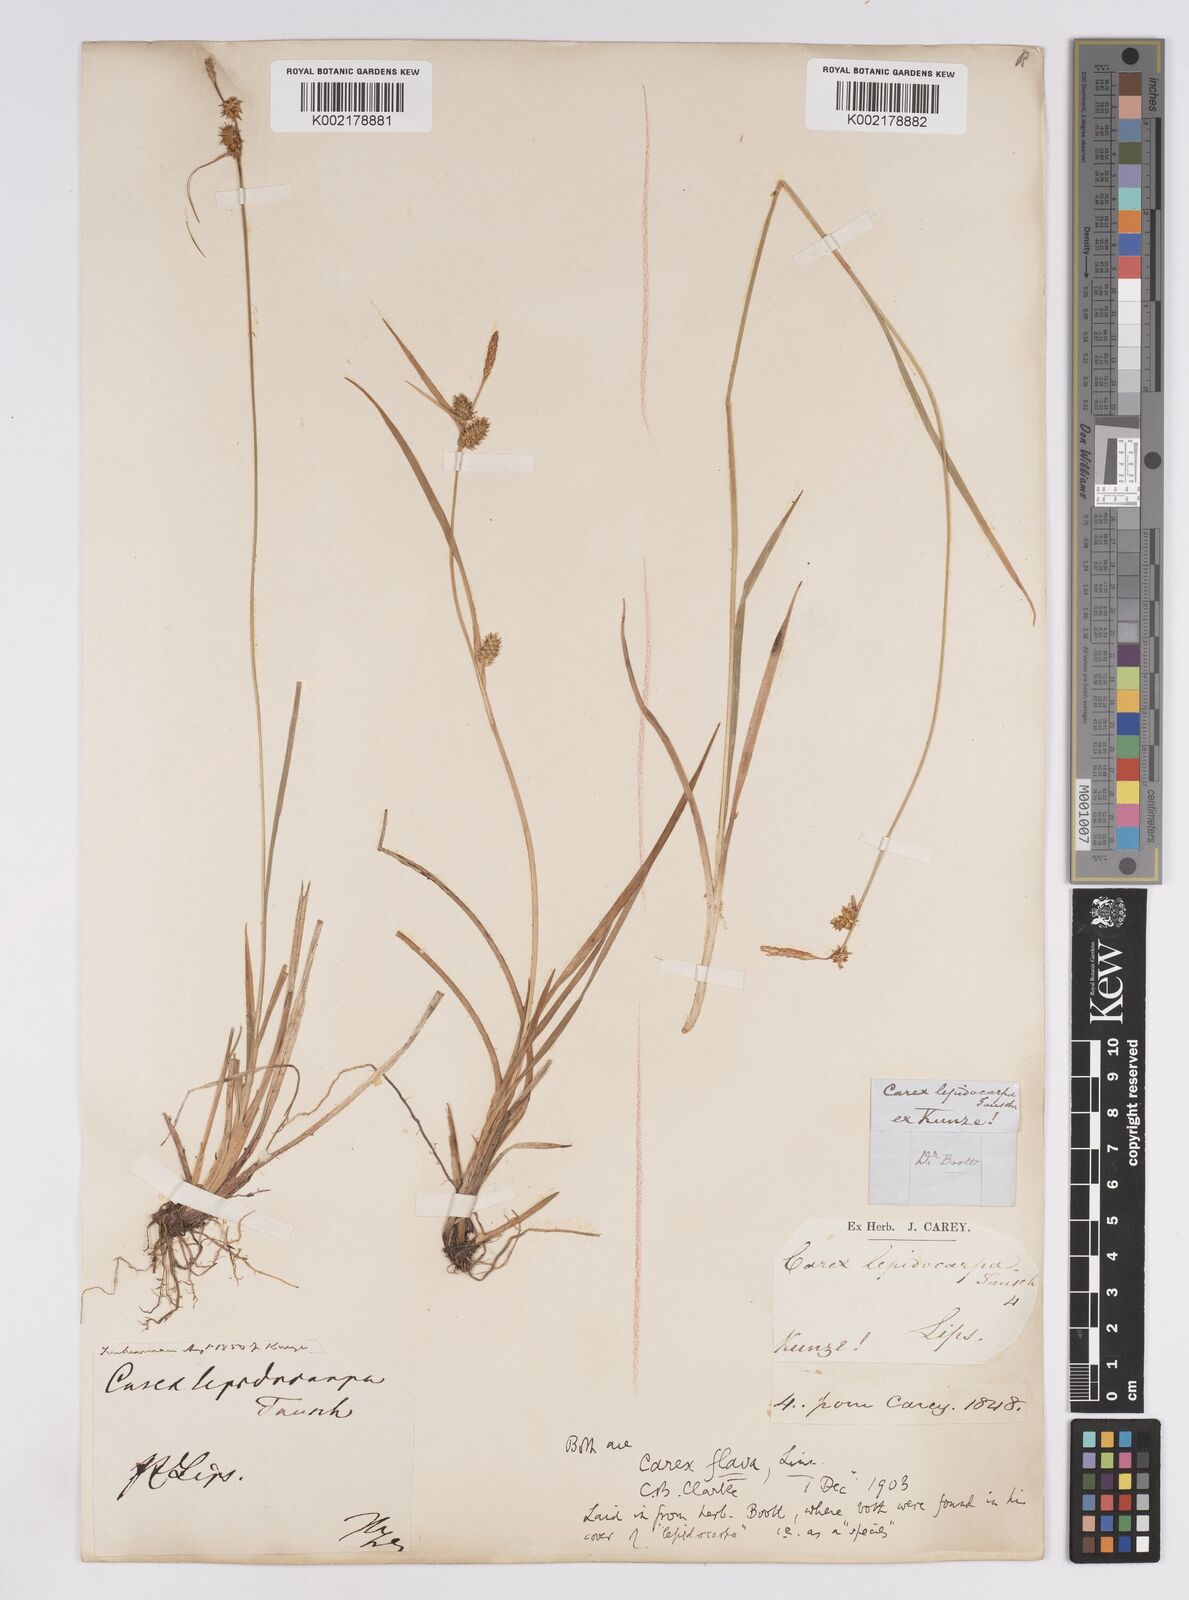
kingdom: Plantae
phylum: Tracheophyta
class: Liliopsida
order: Poales
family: Cyperaceae
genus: Carex
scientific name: Carex lepidocarpa
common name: Long-stalked yellow-sedge
